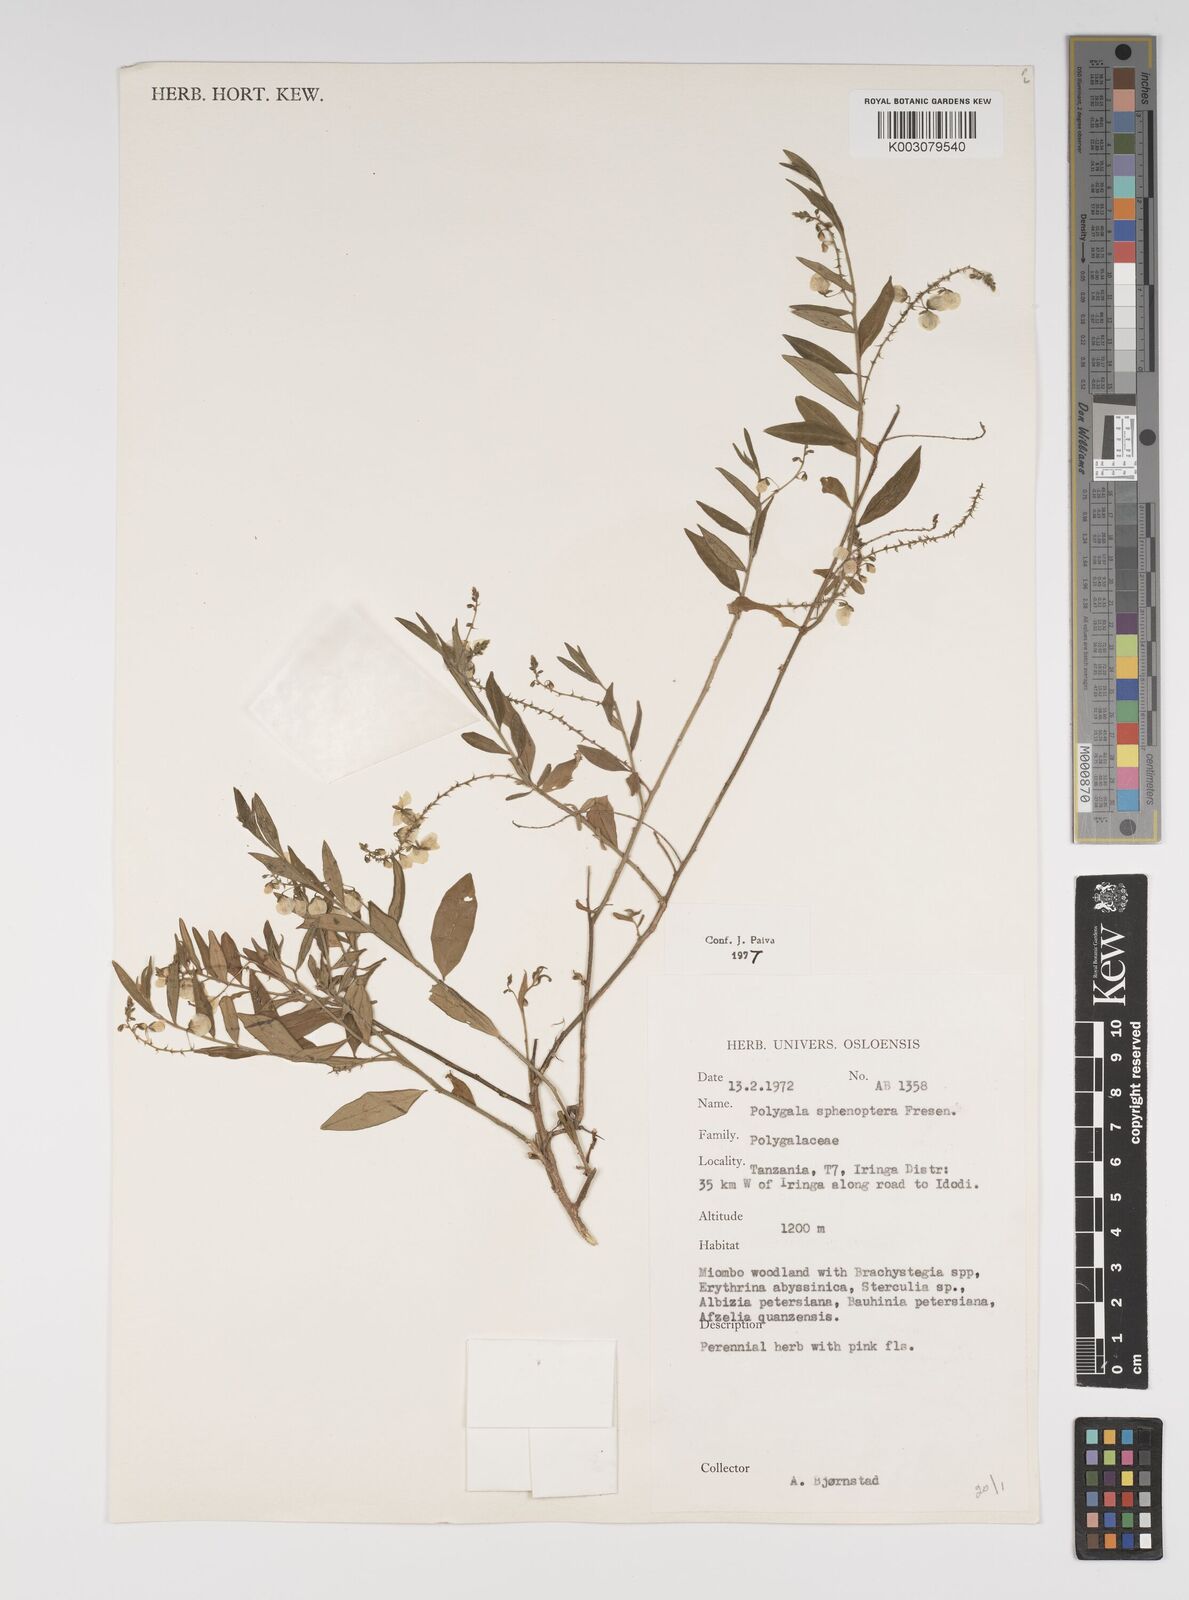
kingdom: Plantae
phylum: Tracheophyta
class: Magnoliopsida
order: Fabales
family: Polygalaceae
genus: Polygala
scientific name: Polygala sphenoptera
